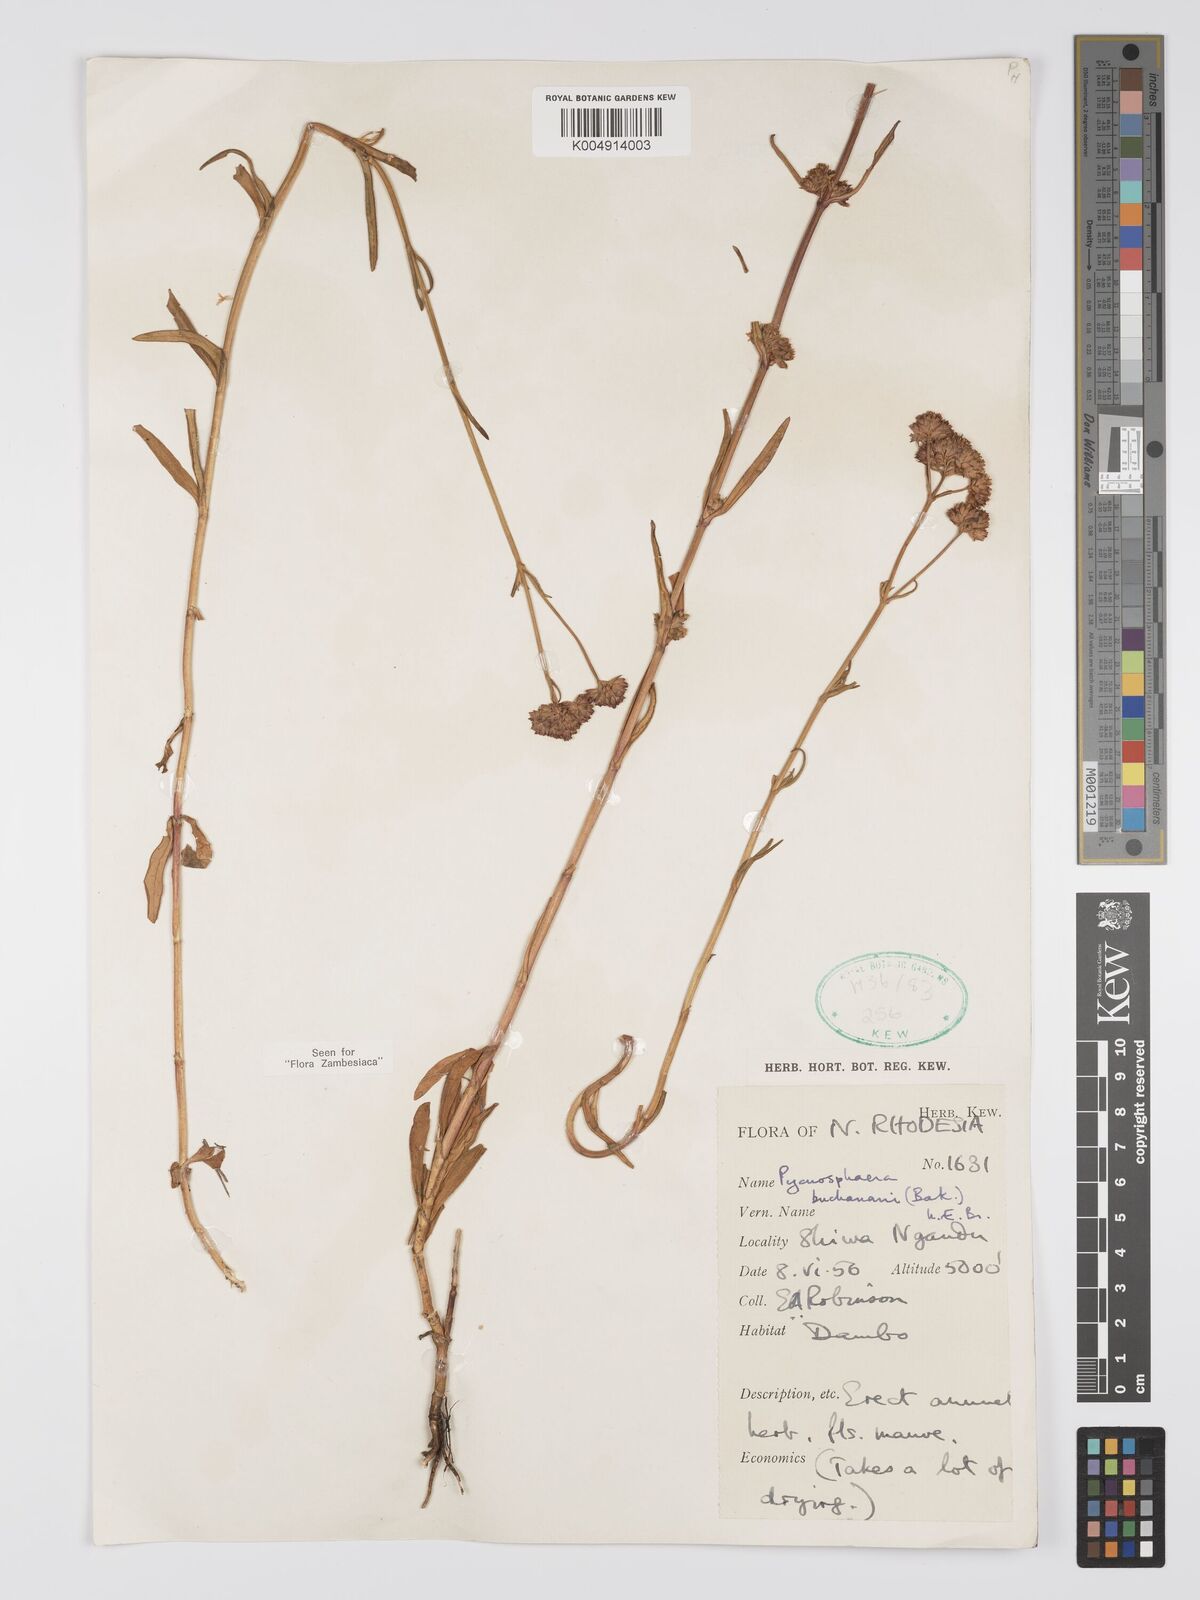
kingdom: Plantae
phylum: Tracheophyta
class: Magnoliopsida
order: Gentianales
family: Gentianaceae
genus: Pycnosphaera
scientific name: Pycnosphaera buchananii
